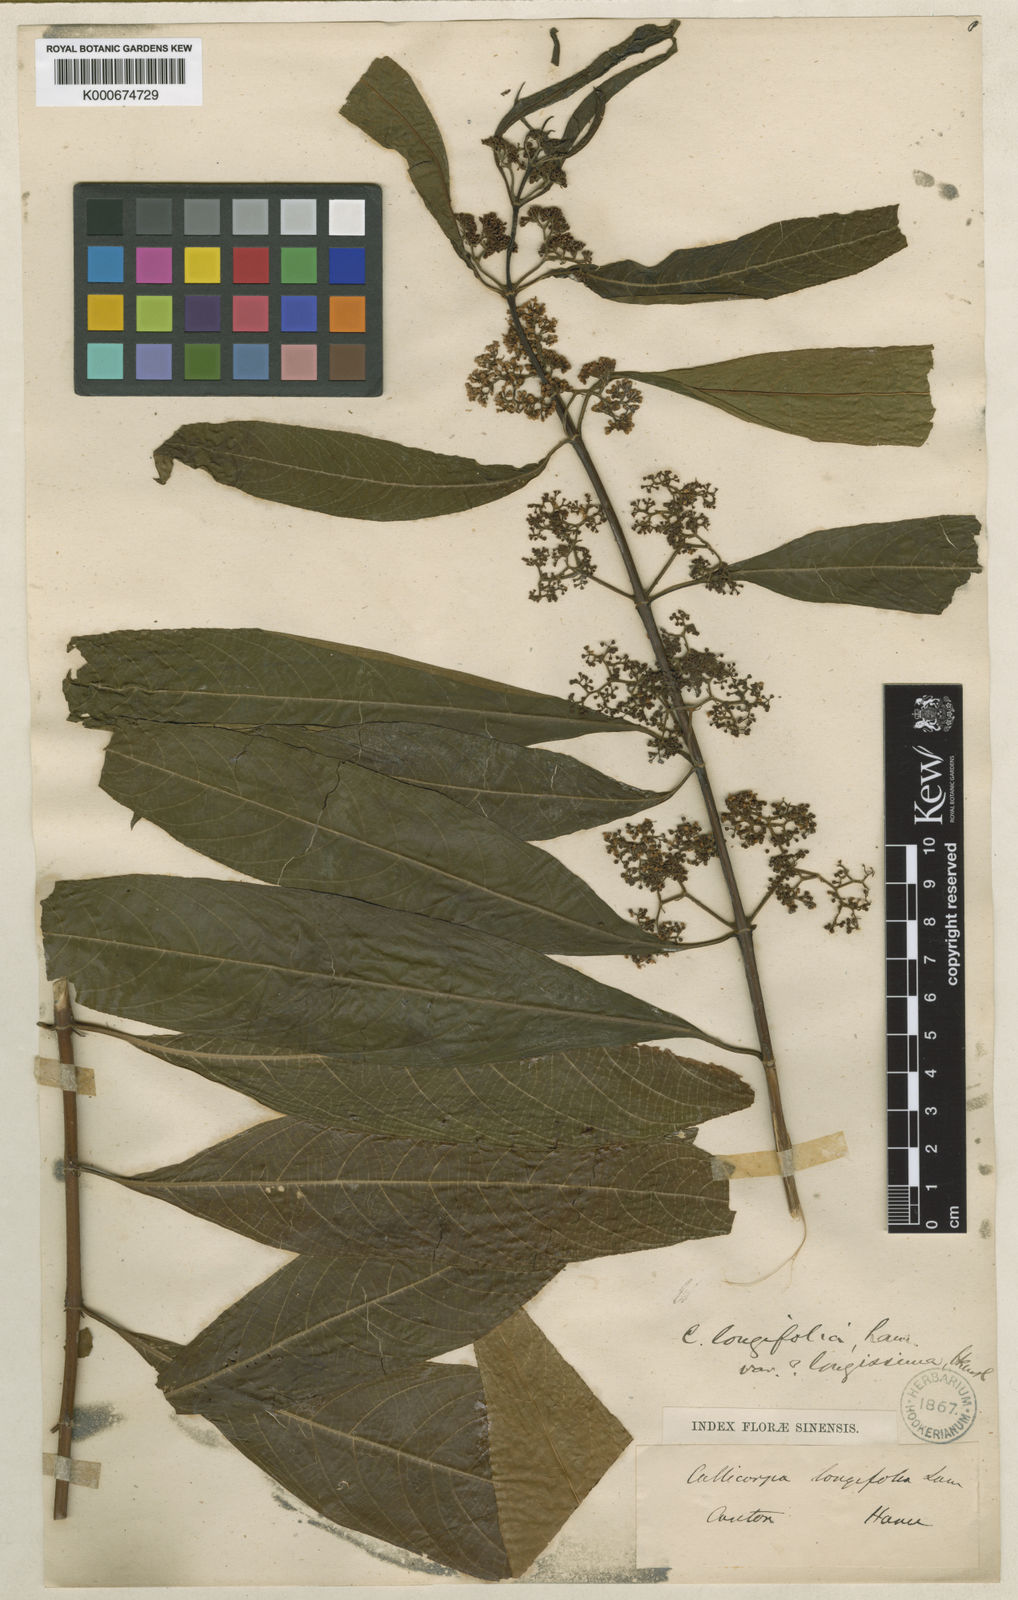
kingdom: Plantae
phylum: Tracheophyta
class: Magnoliopsida
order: Lamiales
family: Lamiaceae
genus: Callicarpa
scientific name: Callicarpa longifolia
